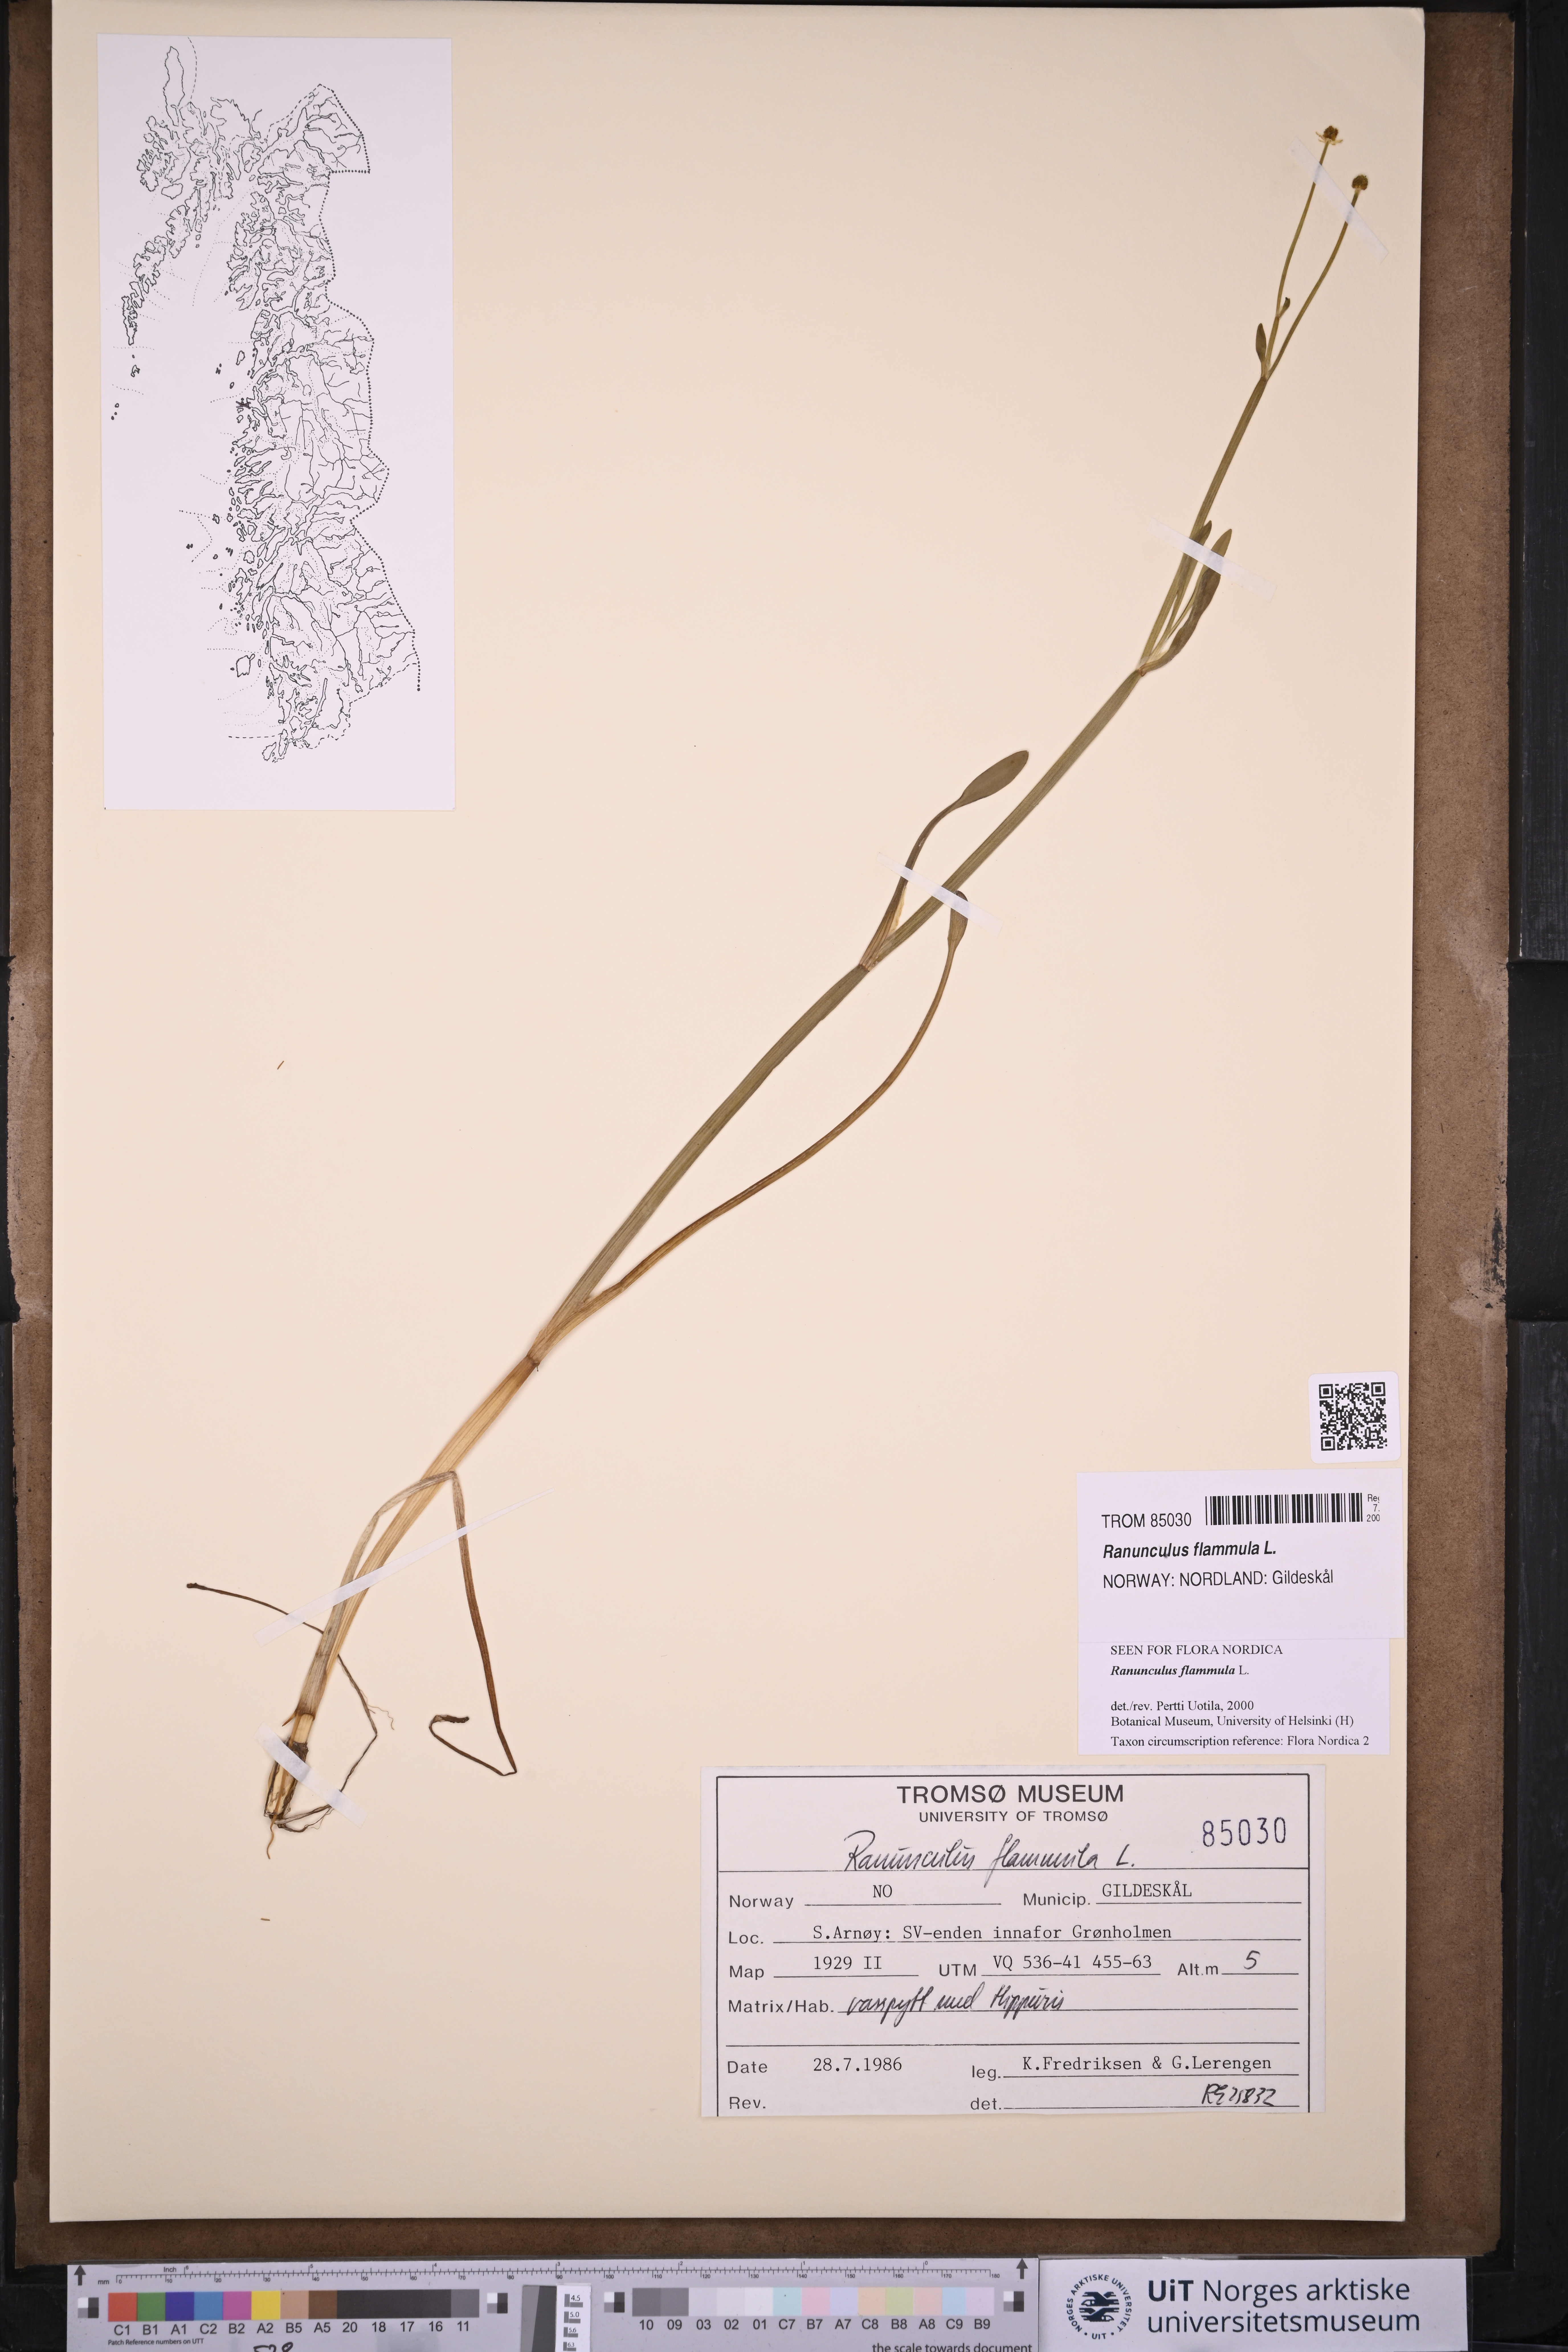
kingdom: Plantae
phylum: Tracheophyta
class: Magnoliopsida
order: Ranunculales
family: Ranunculaceae
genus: Ranunculus
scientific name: Ranunculus flammula
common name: Lesser spearwort
